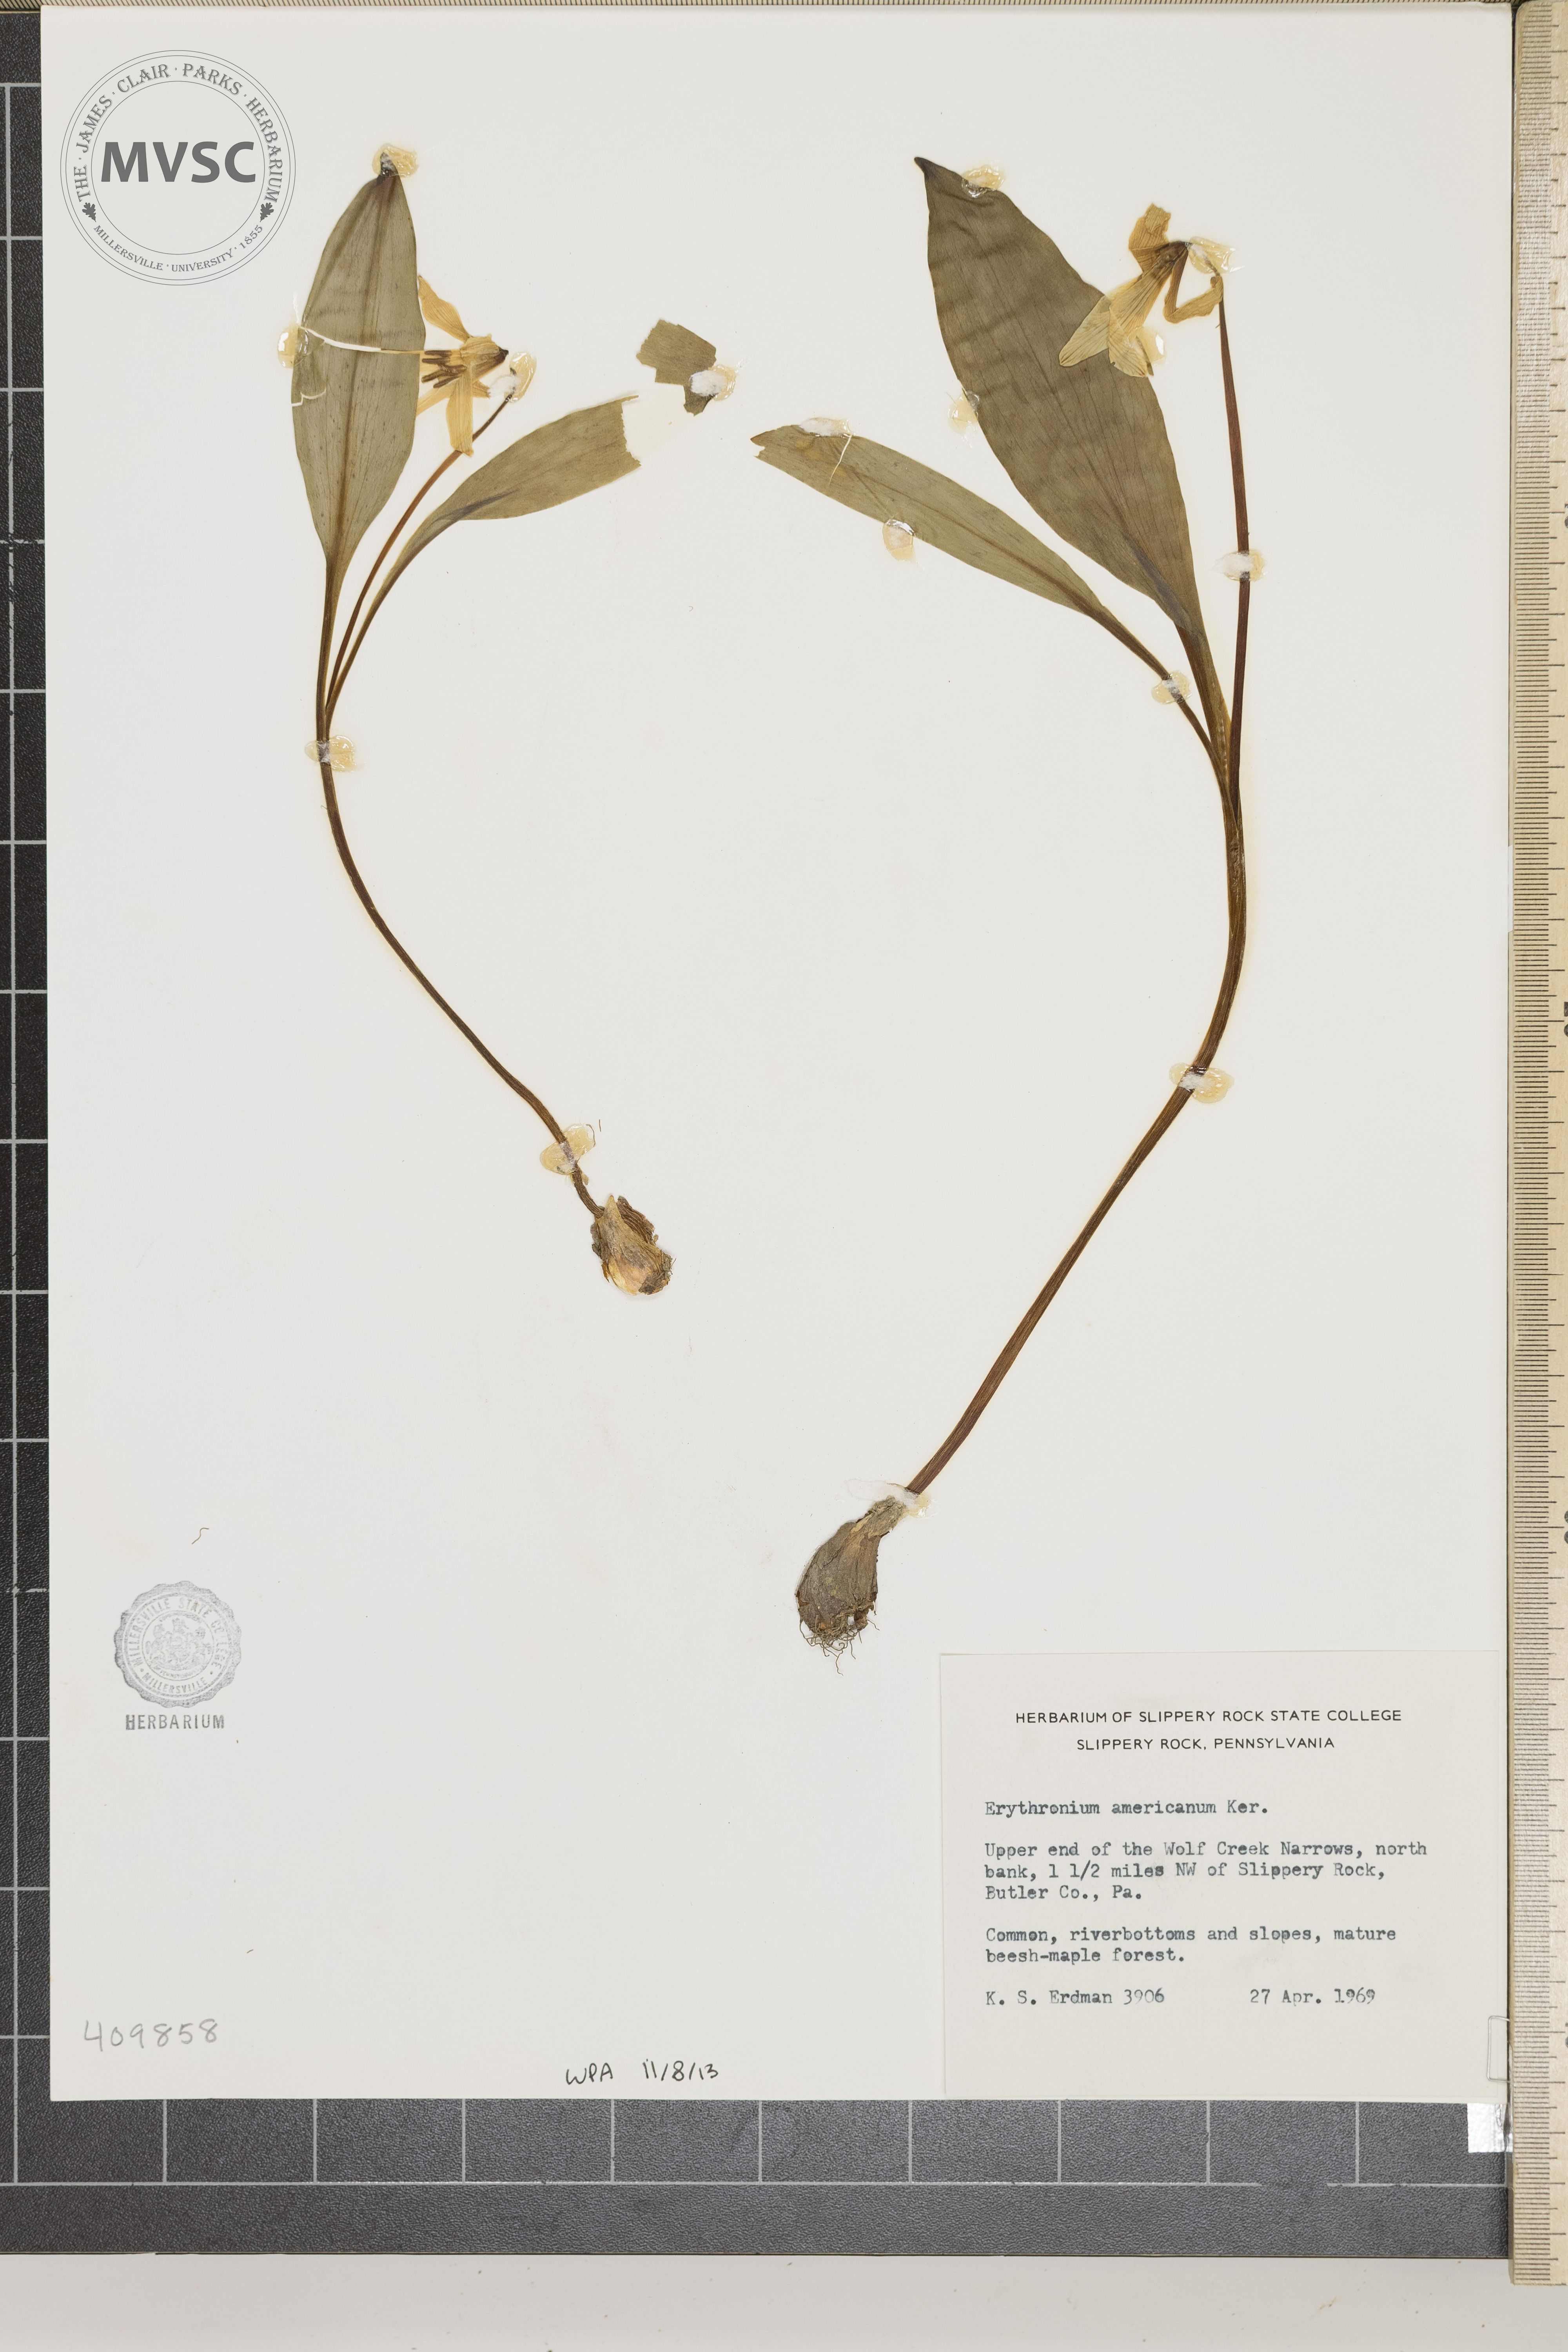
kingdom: Plantae
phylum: Tracheophyta
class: Liliopsida
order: Liliales
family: Liliaceae
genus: Erythronium
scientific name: Erythronium americanum
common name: Yellow adder's-tongue
